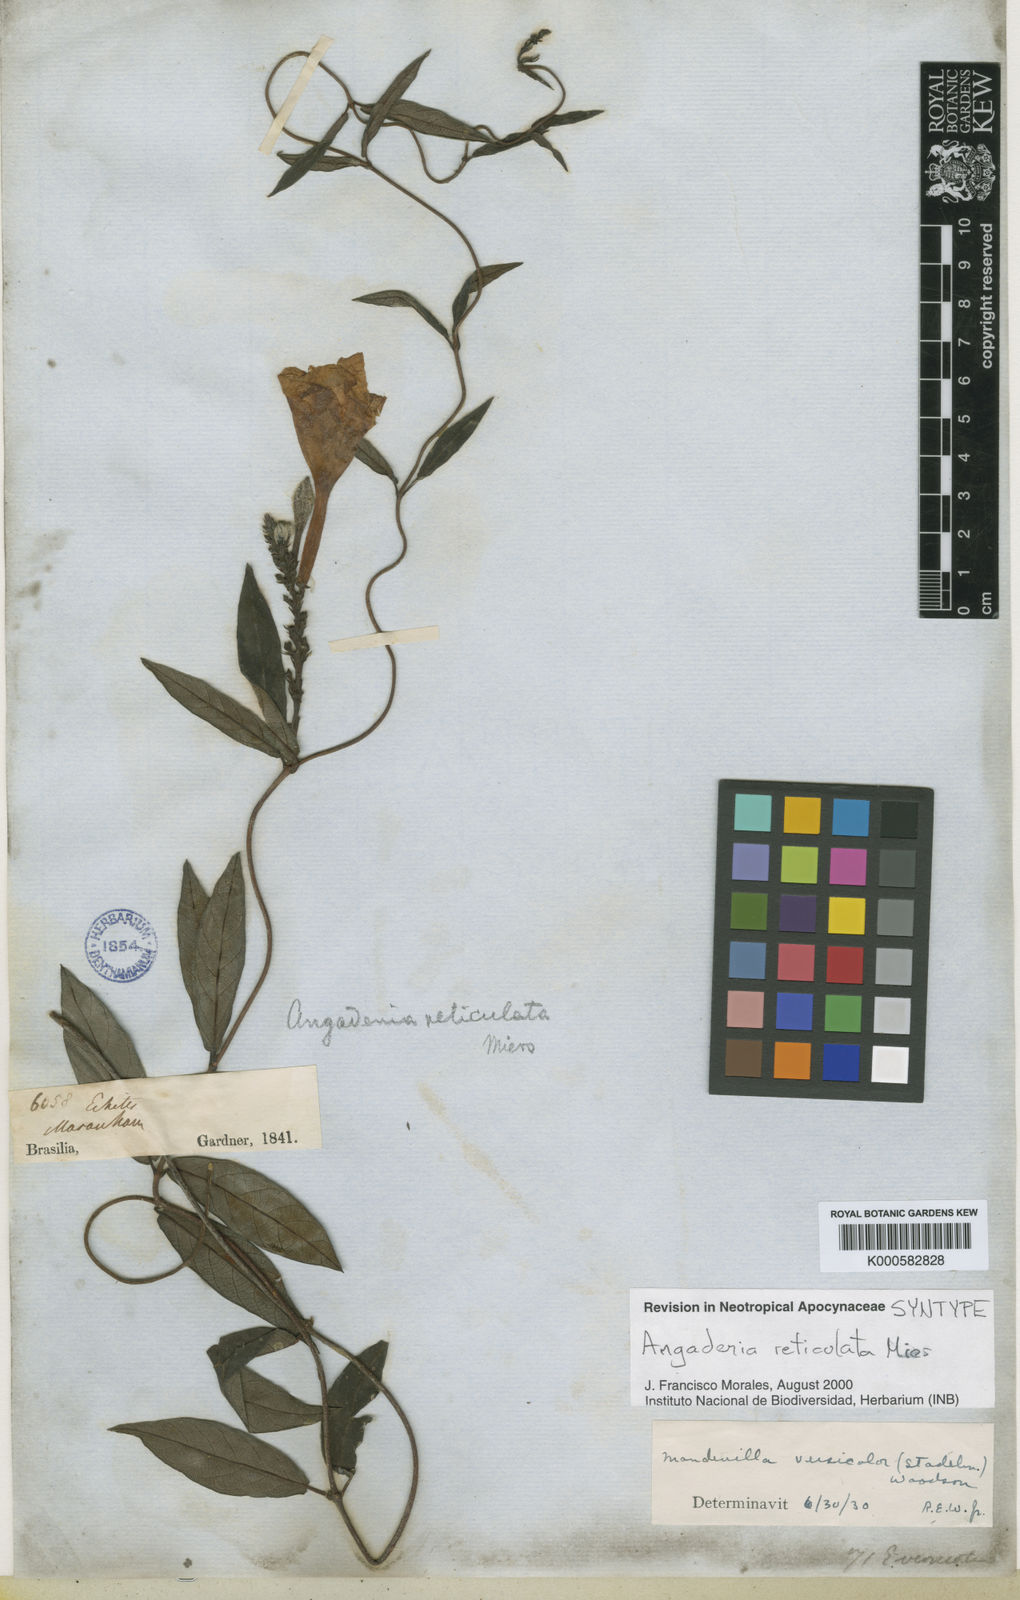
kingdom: Plantae
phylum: Tracheophyta
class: Magnoliopsida
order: Gentianales
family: Apocynaceae
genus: Mandevilla
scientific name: Mandevilla scabra
